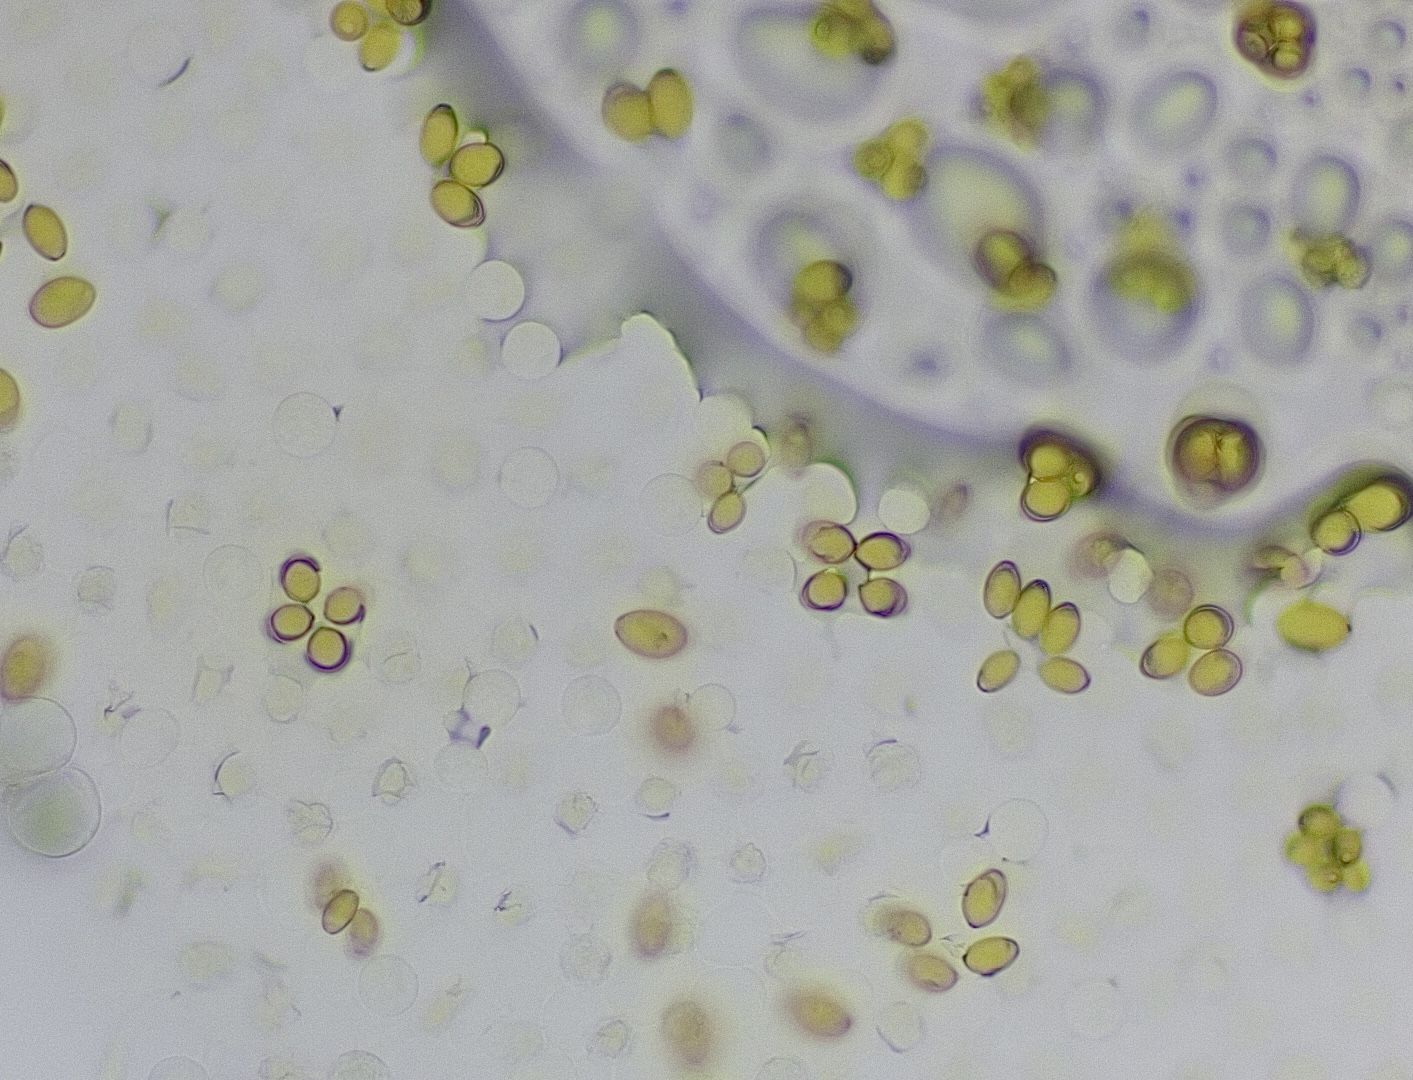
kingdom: Fungi
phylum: Basidiomycota
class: Agaricomycetes
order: Agaricales
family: Bolbitiaceae
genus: Conocybe
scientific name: Conocybe apala
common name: mælkehvid keglehat
